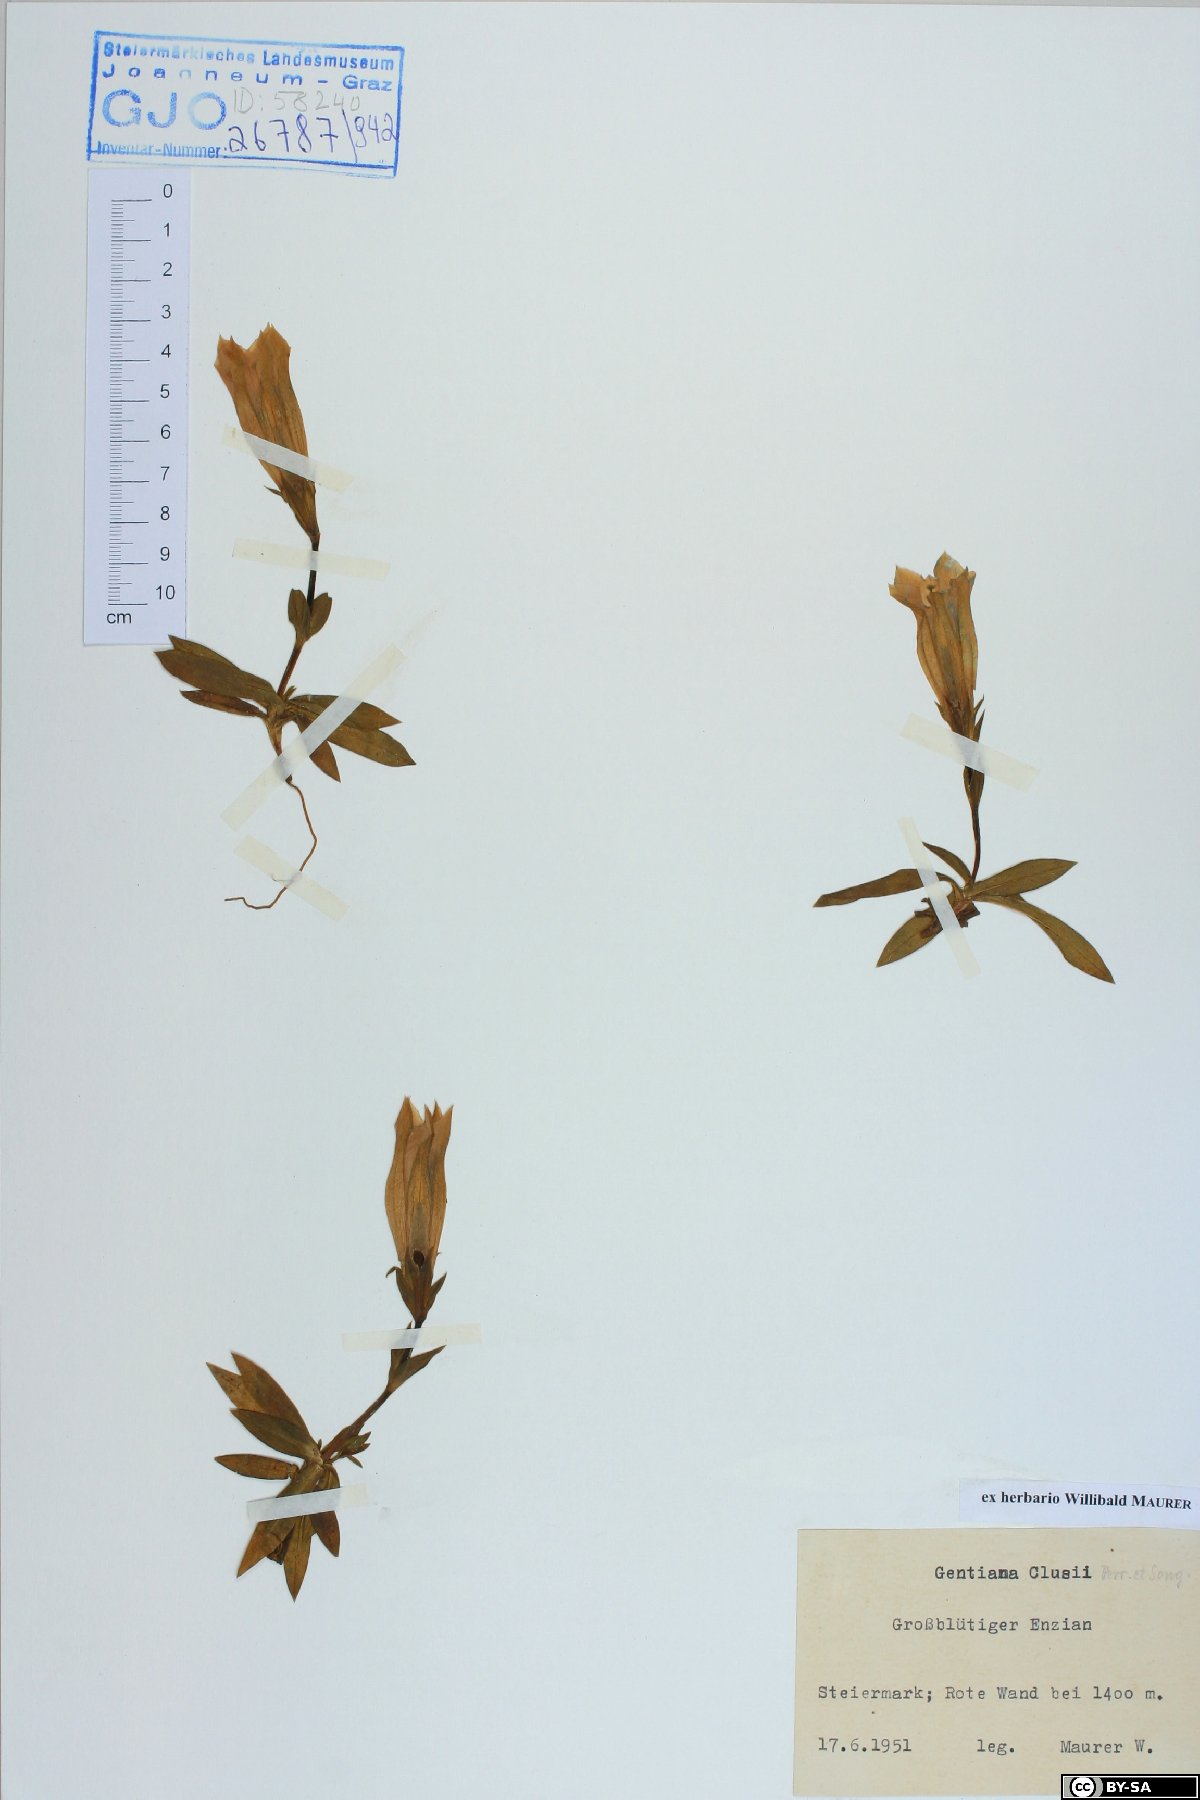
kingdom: Plantae
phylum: Tracheophyta
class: Magnoliopsida
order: Gentianales
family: Gentianaceae
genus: Gentiana
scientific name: Gentiana clusii
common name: Trumpet gentian
